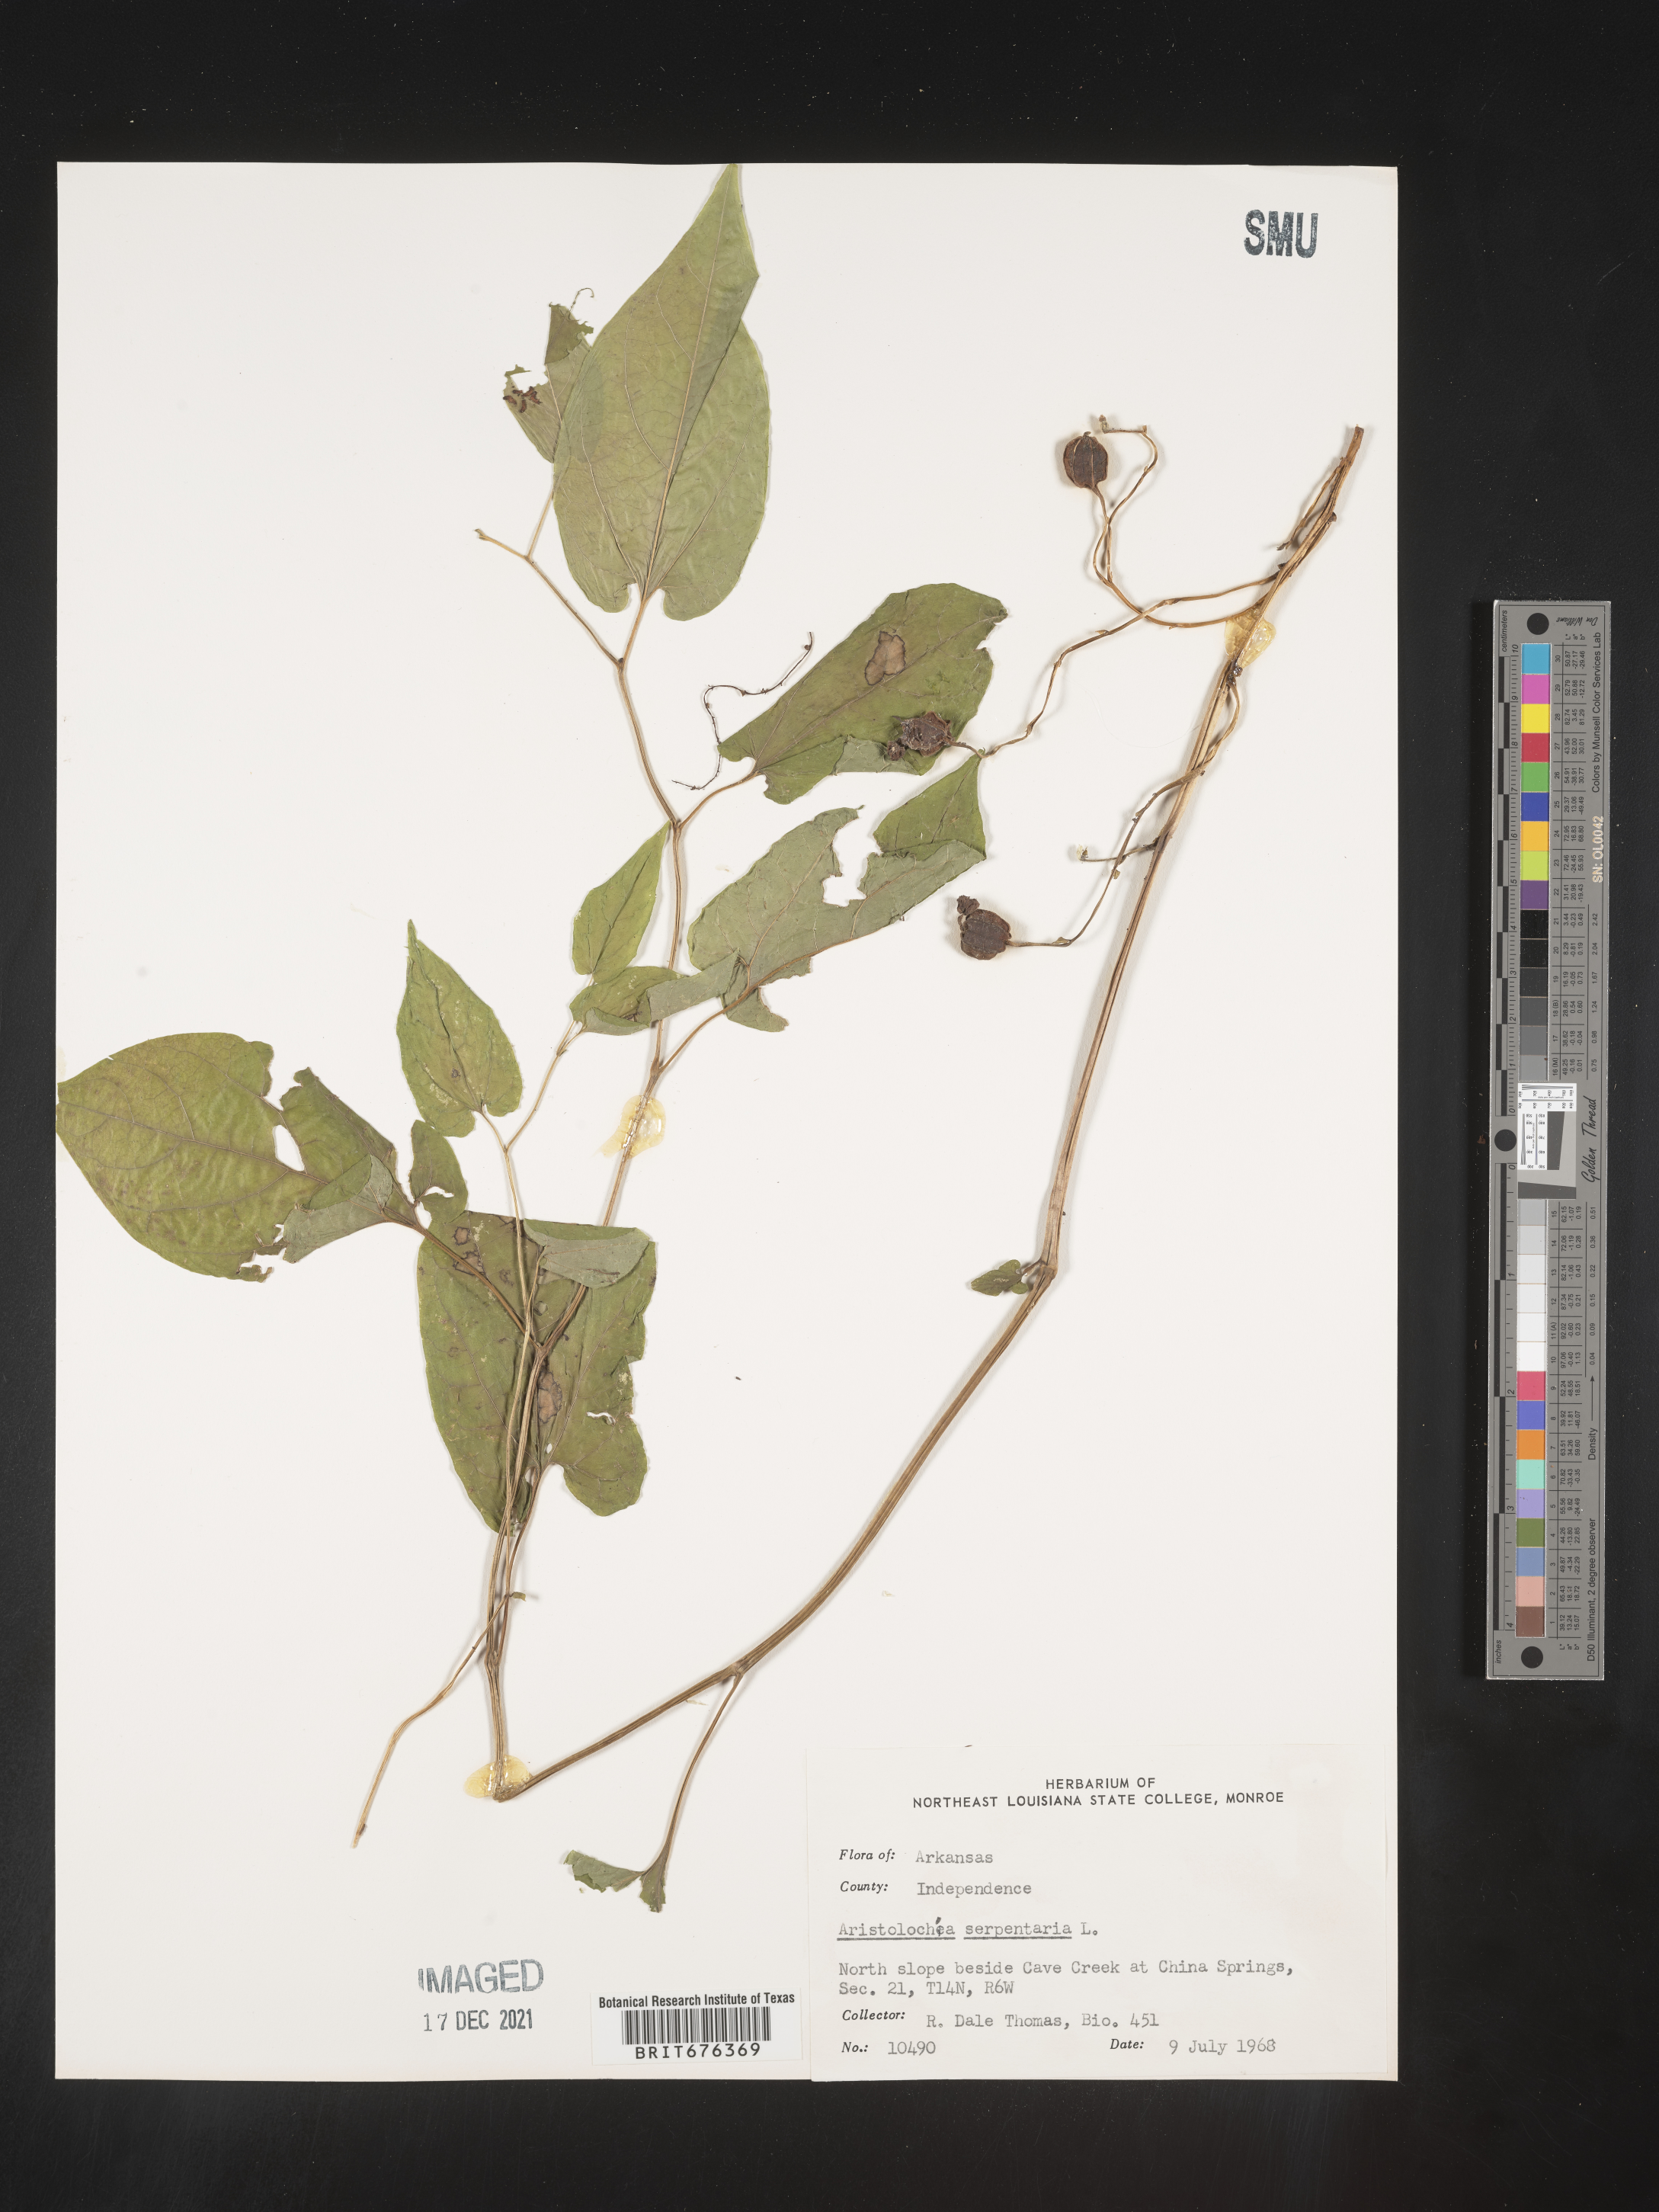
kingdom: Plantae
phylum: Tracheophyta
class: Magnoliopsida
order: Piperales
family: Aristolochiaceae
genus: Aristolochia
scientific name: Aristolochia
